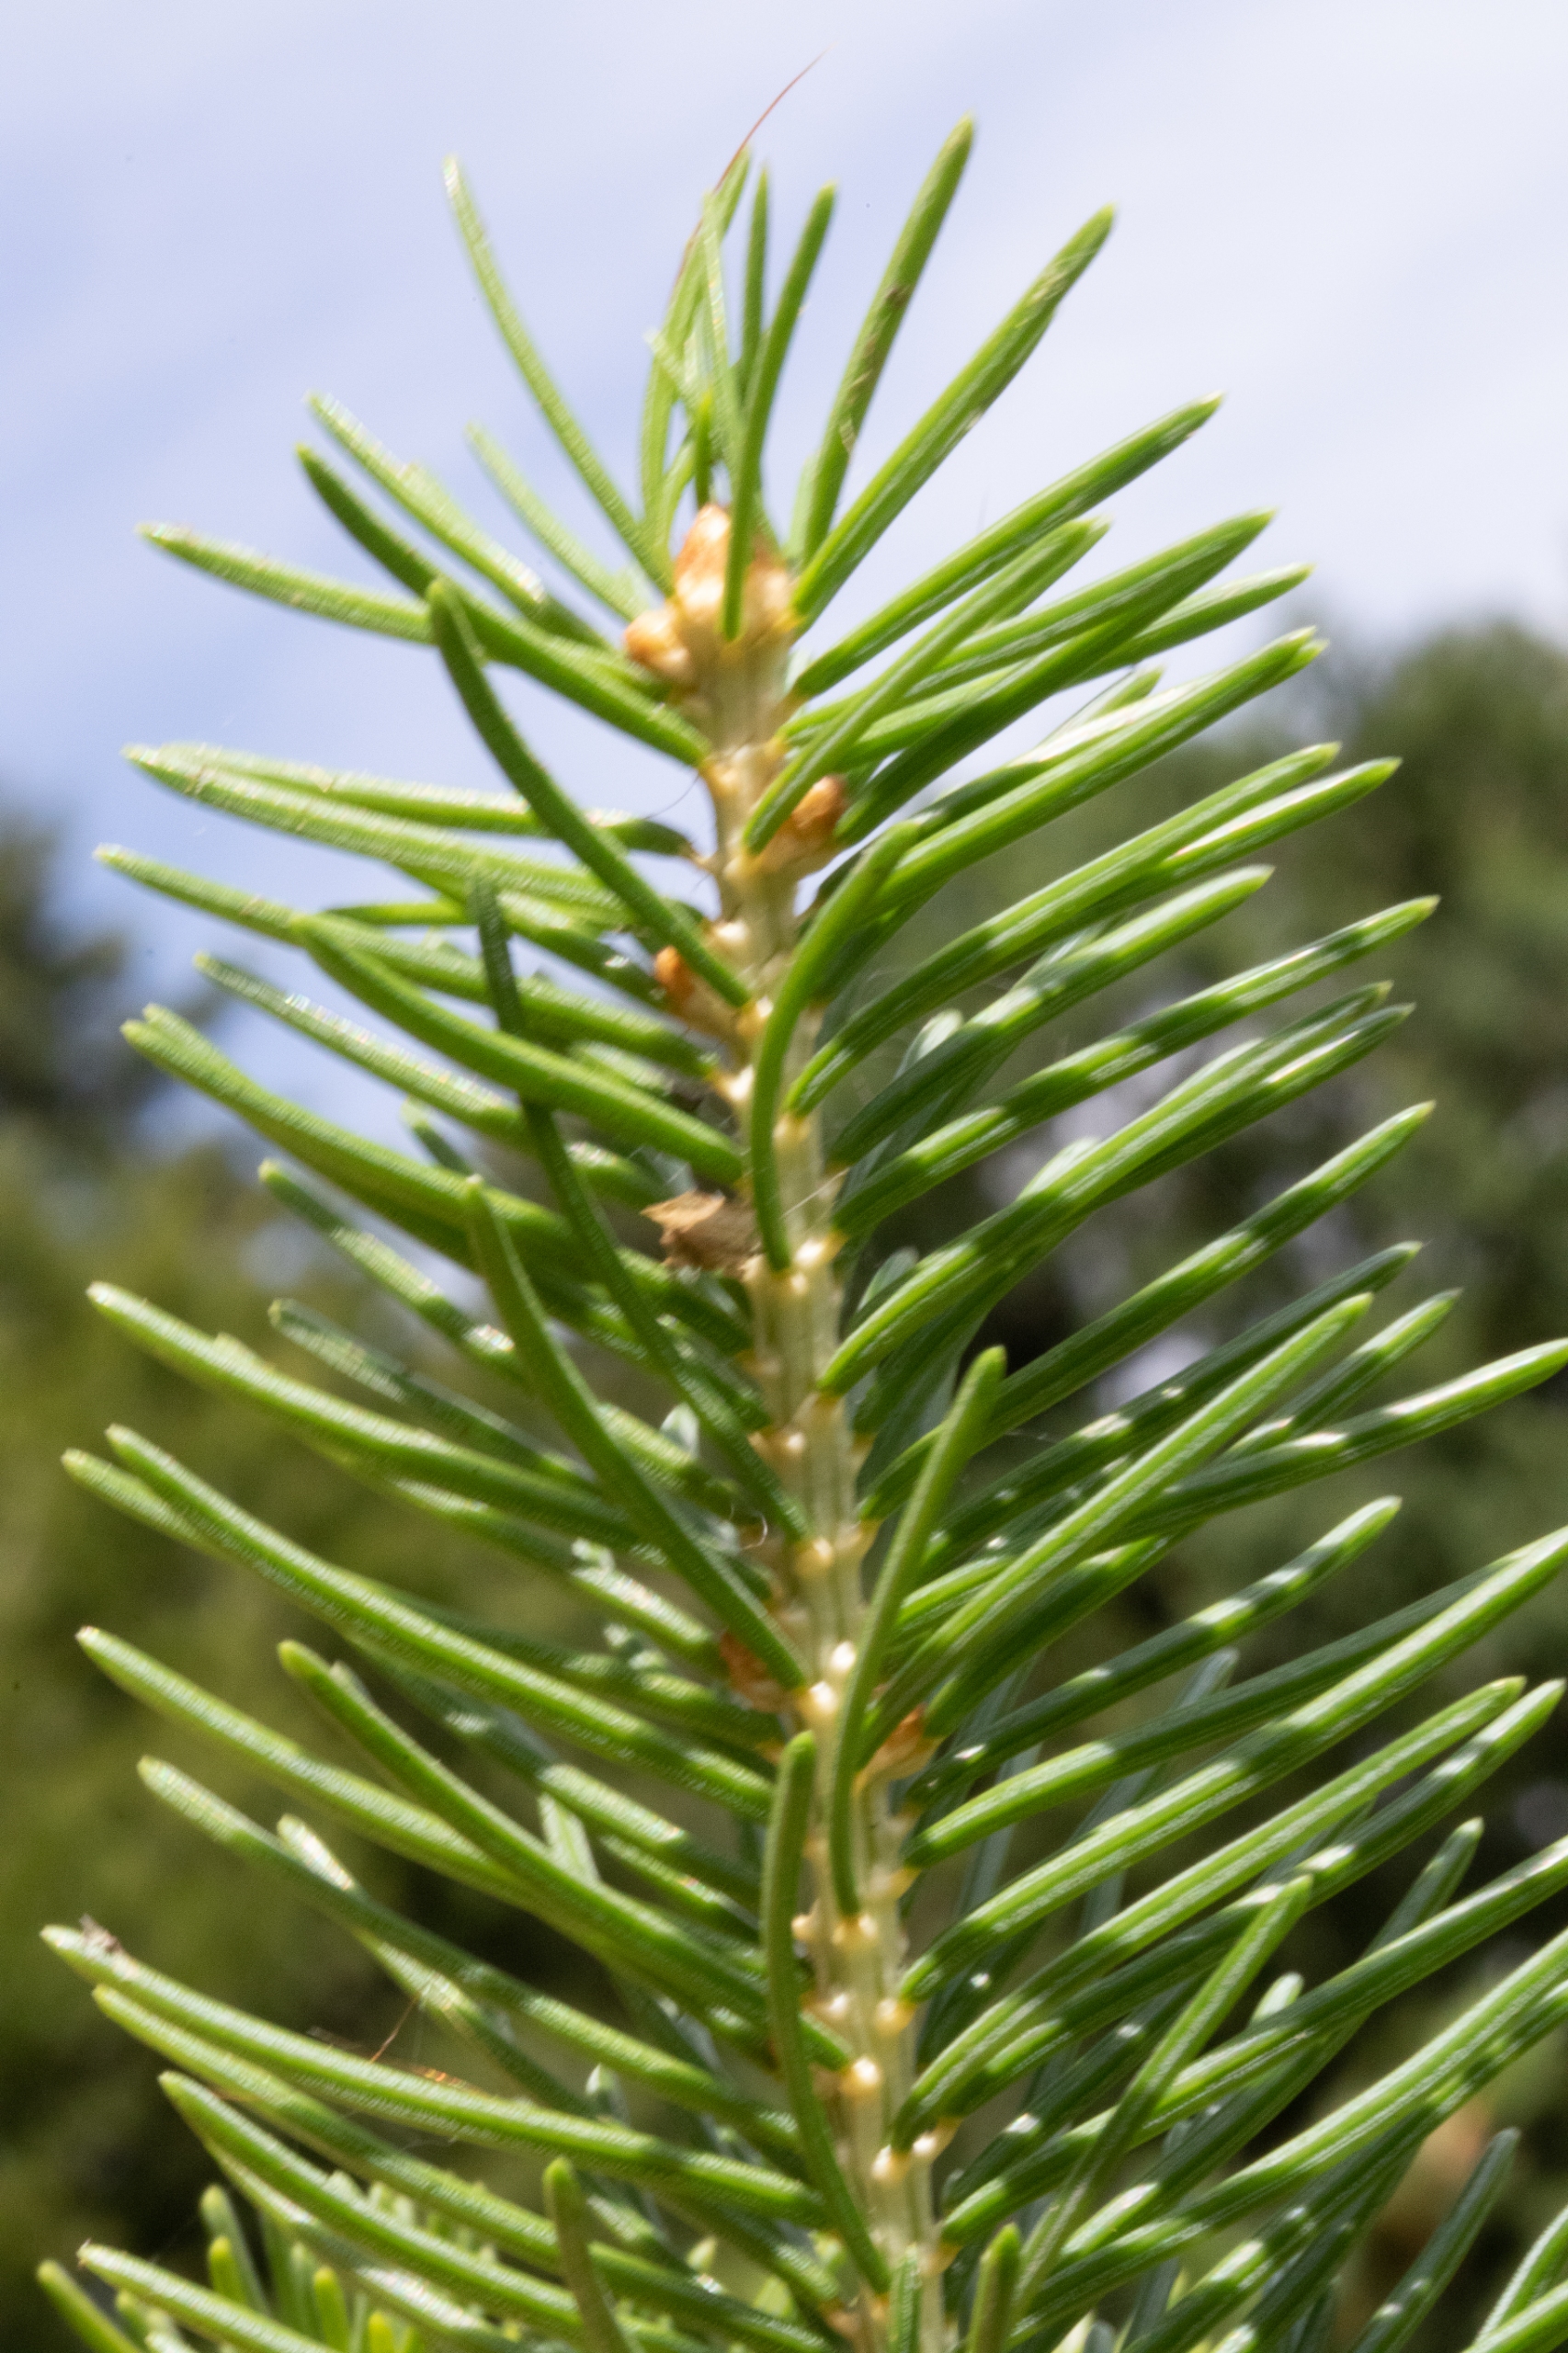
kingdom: Plantae
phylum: Tracheophyta
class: Pinopsida
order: Pinales
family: Pinaceae
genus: Picea
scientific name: Picea abies
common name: Rød-gran
